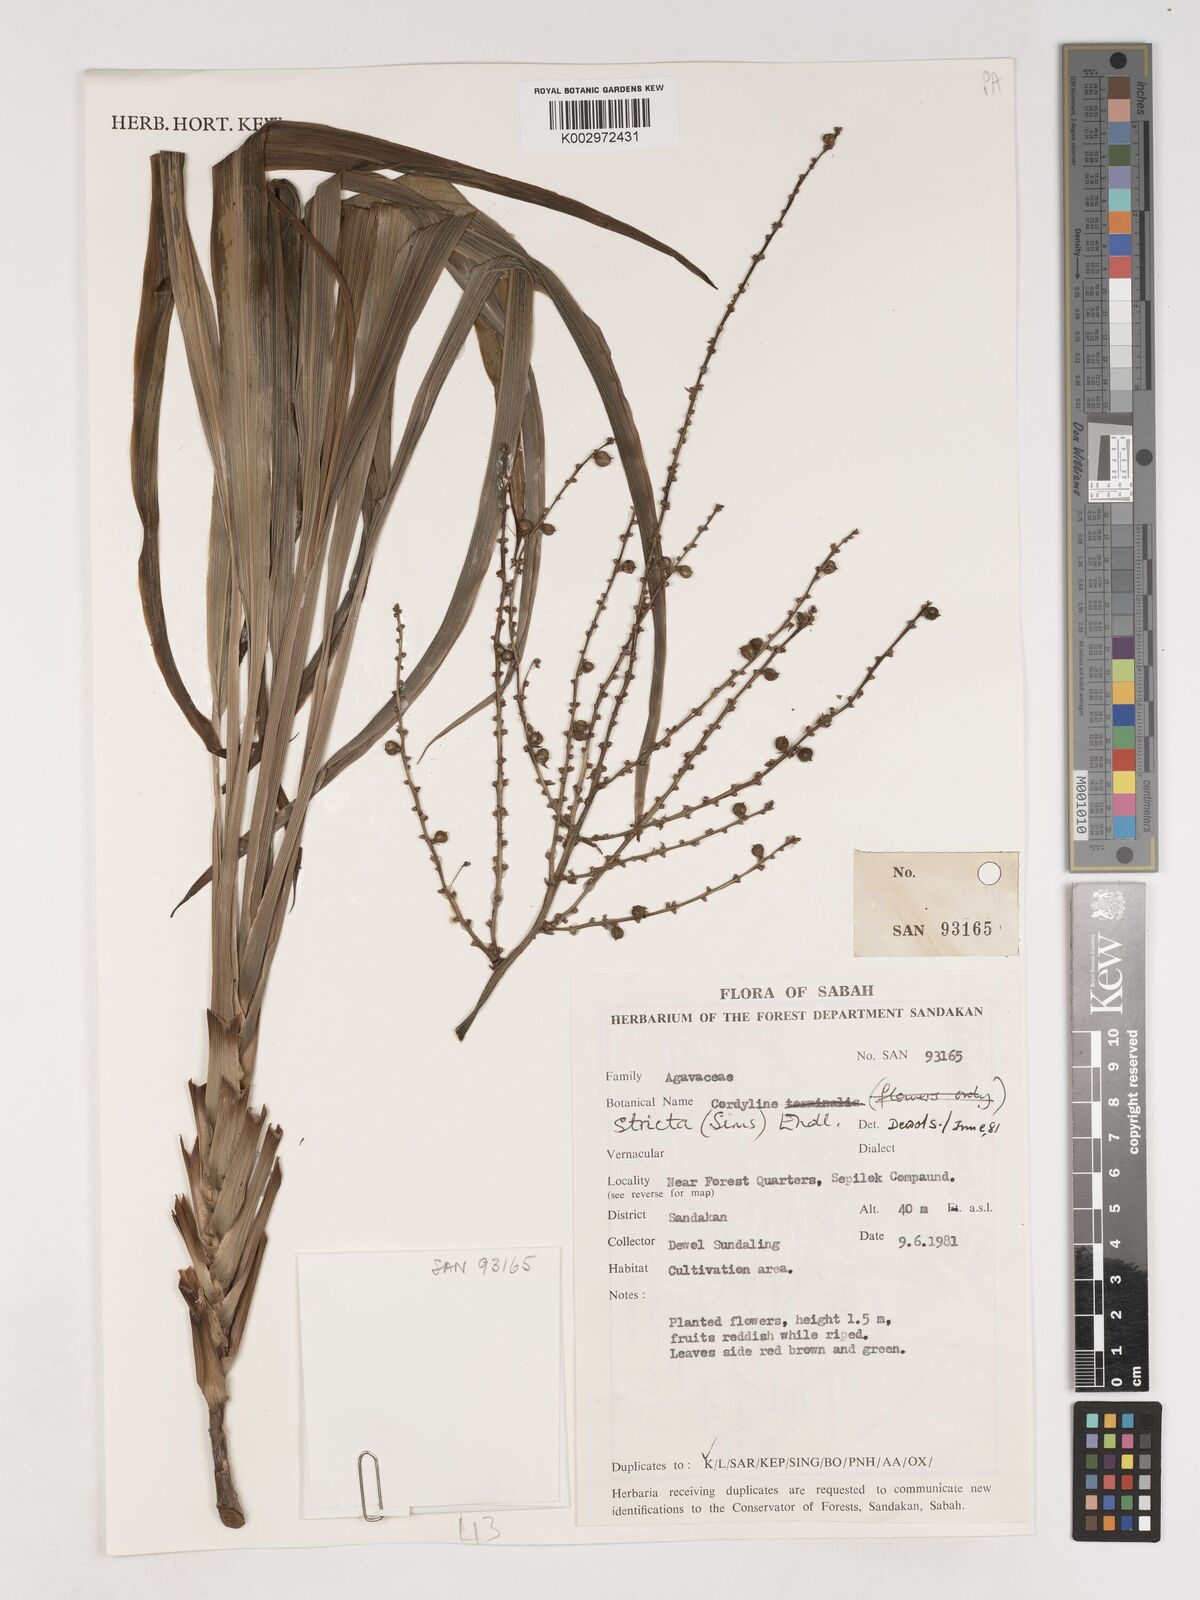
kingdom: Plantae
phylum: Tracheophyta
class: Liliopsida
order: Asparagales
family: Asparagaceae
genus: Cordyline
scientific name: Cordyline stricta
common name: Narrow-leaf palm-lily
